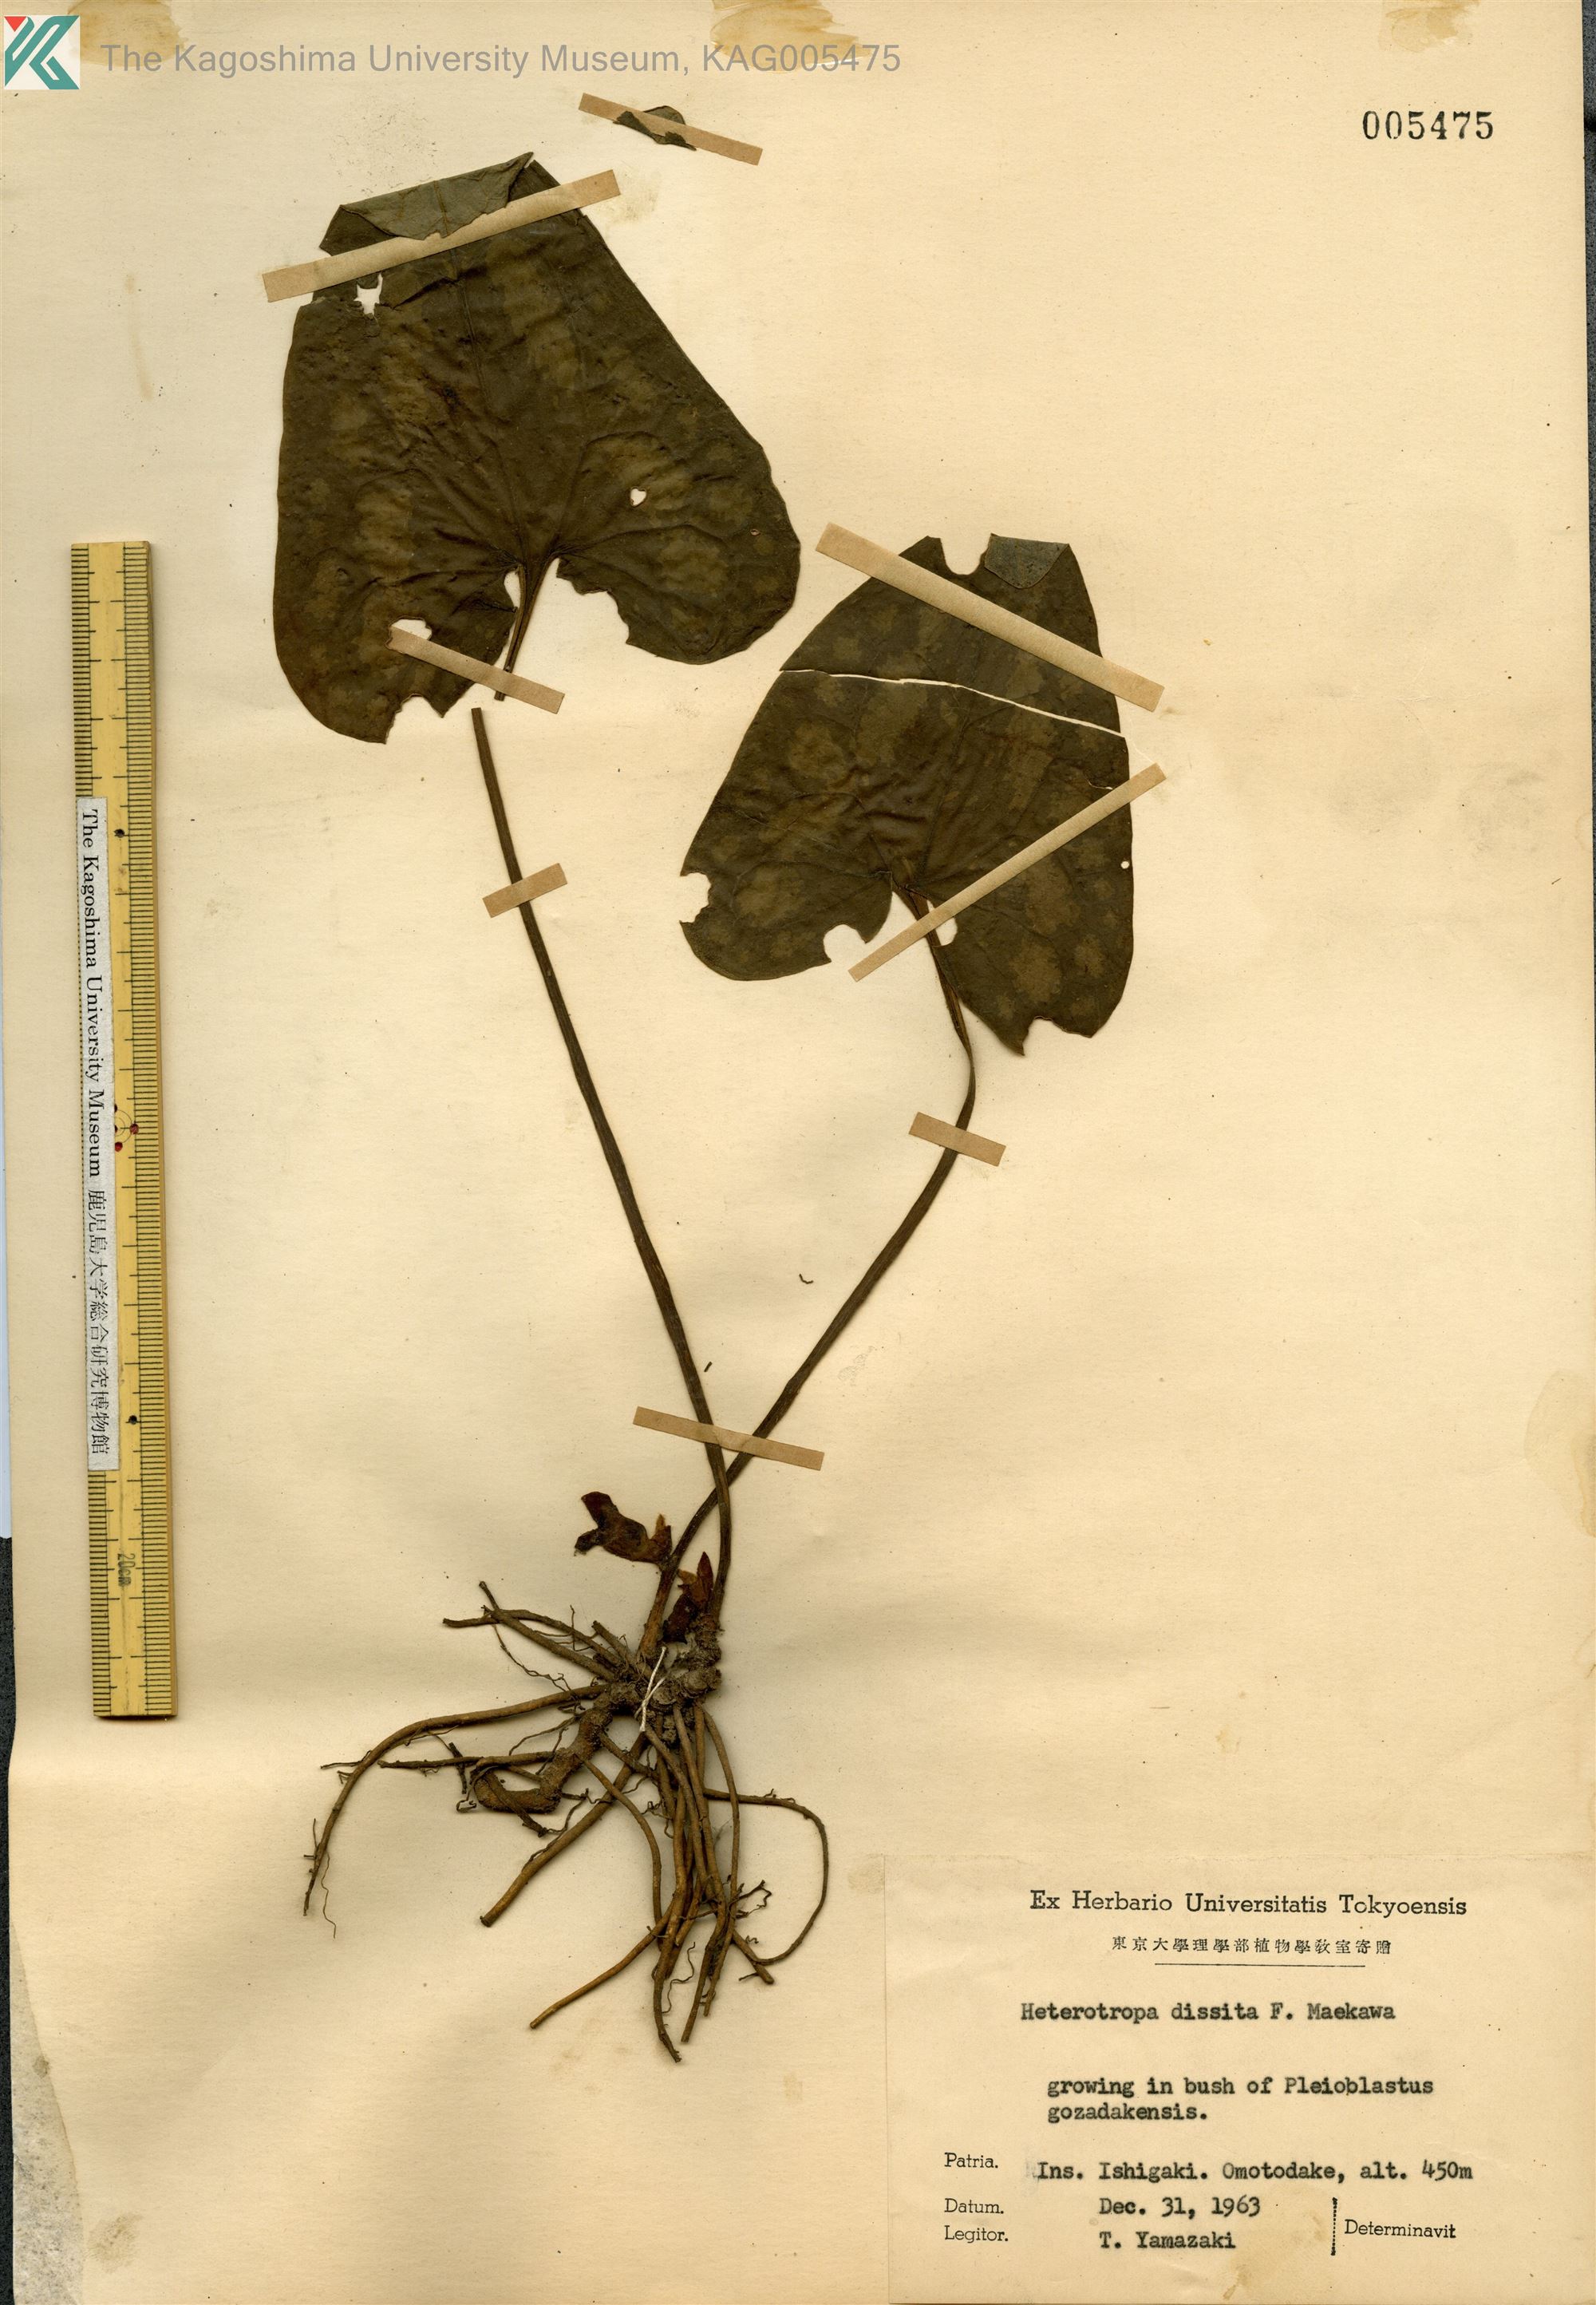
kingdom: Plantae
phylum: Tracheophyta
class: Magnoliopsida
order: Piperales
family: Aristolochiaceae
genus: Asarum
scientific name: Asarum dissitum
